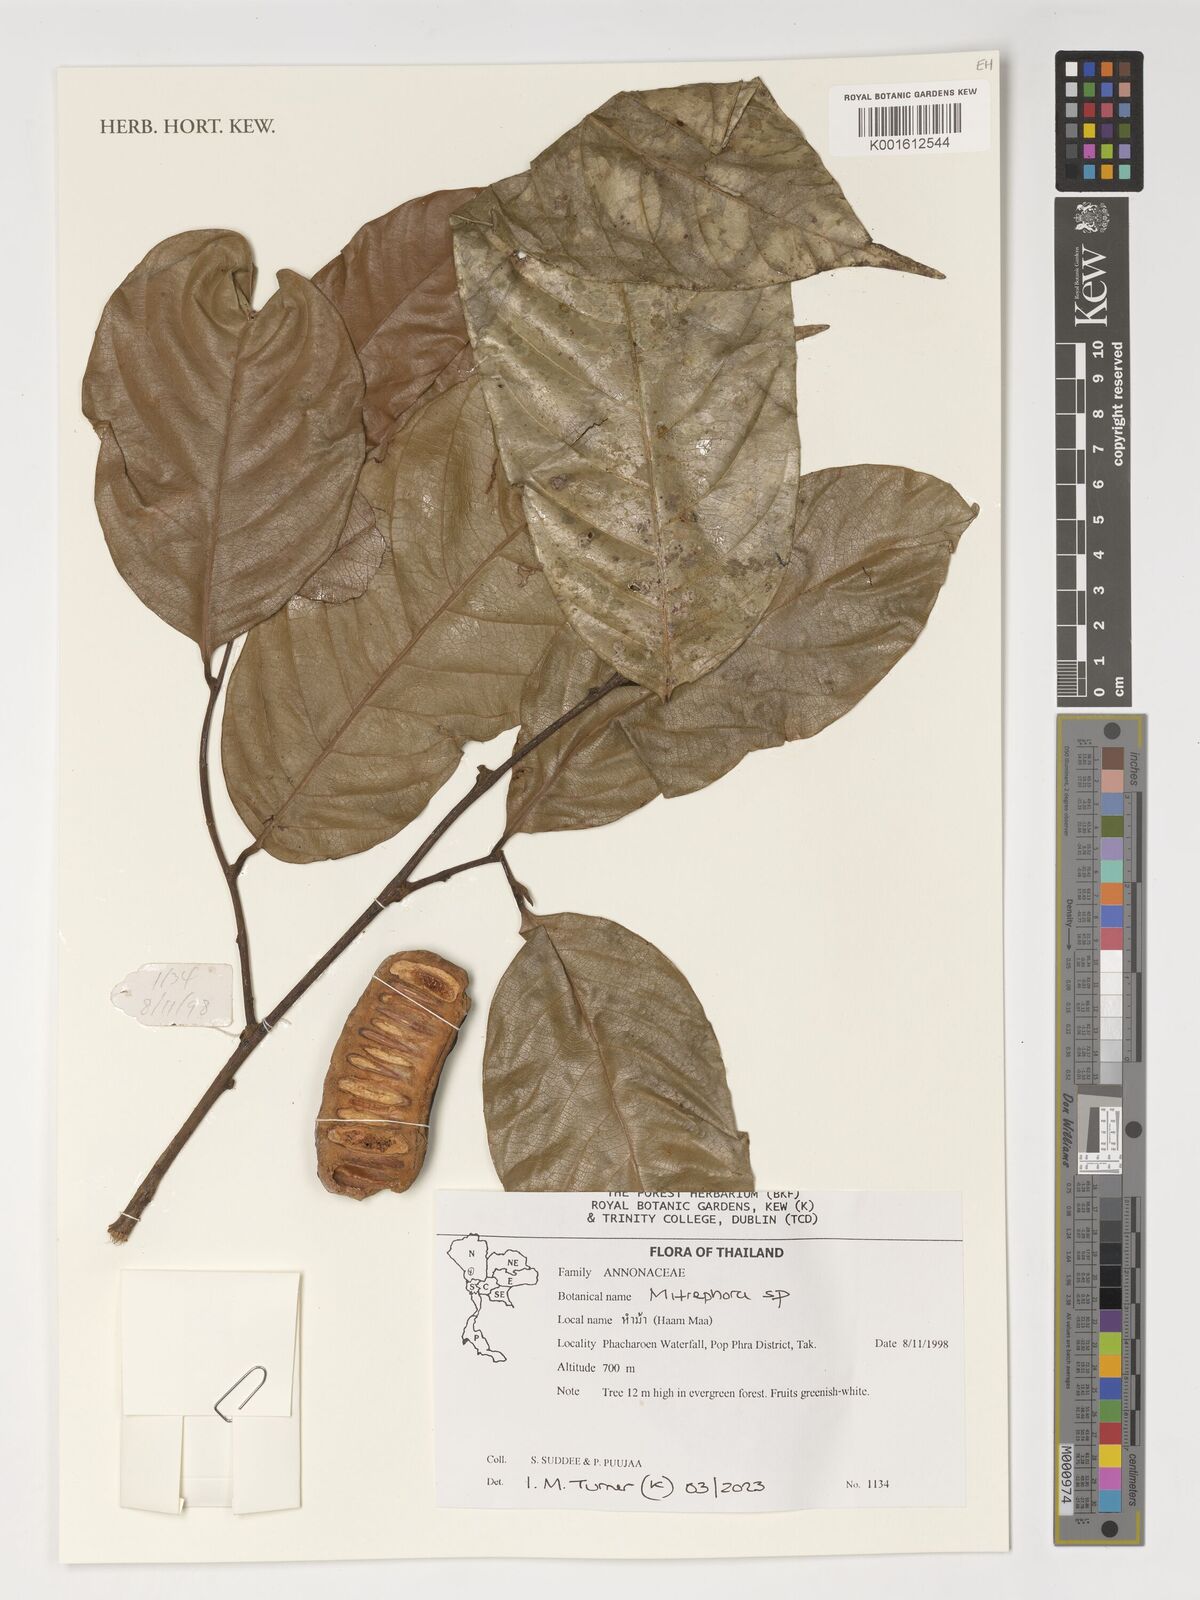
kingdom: Plantae
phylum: Tracheophyta
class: Magnoliopsida
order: Magnoliales
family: Annonaceae
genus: Mitrephora
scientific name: Mitrephora
